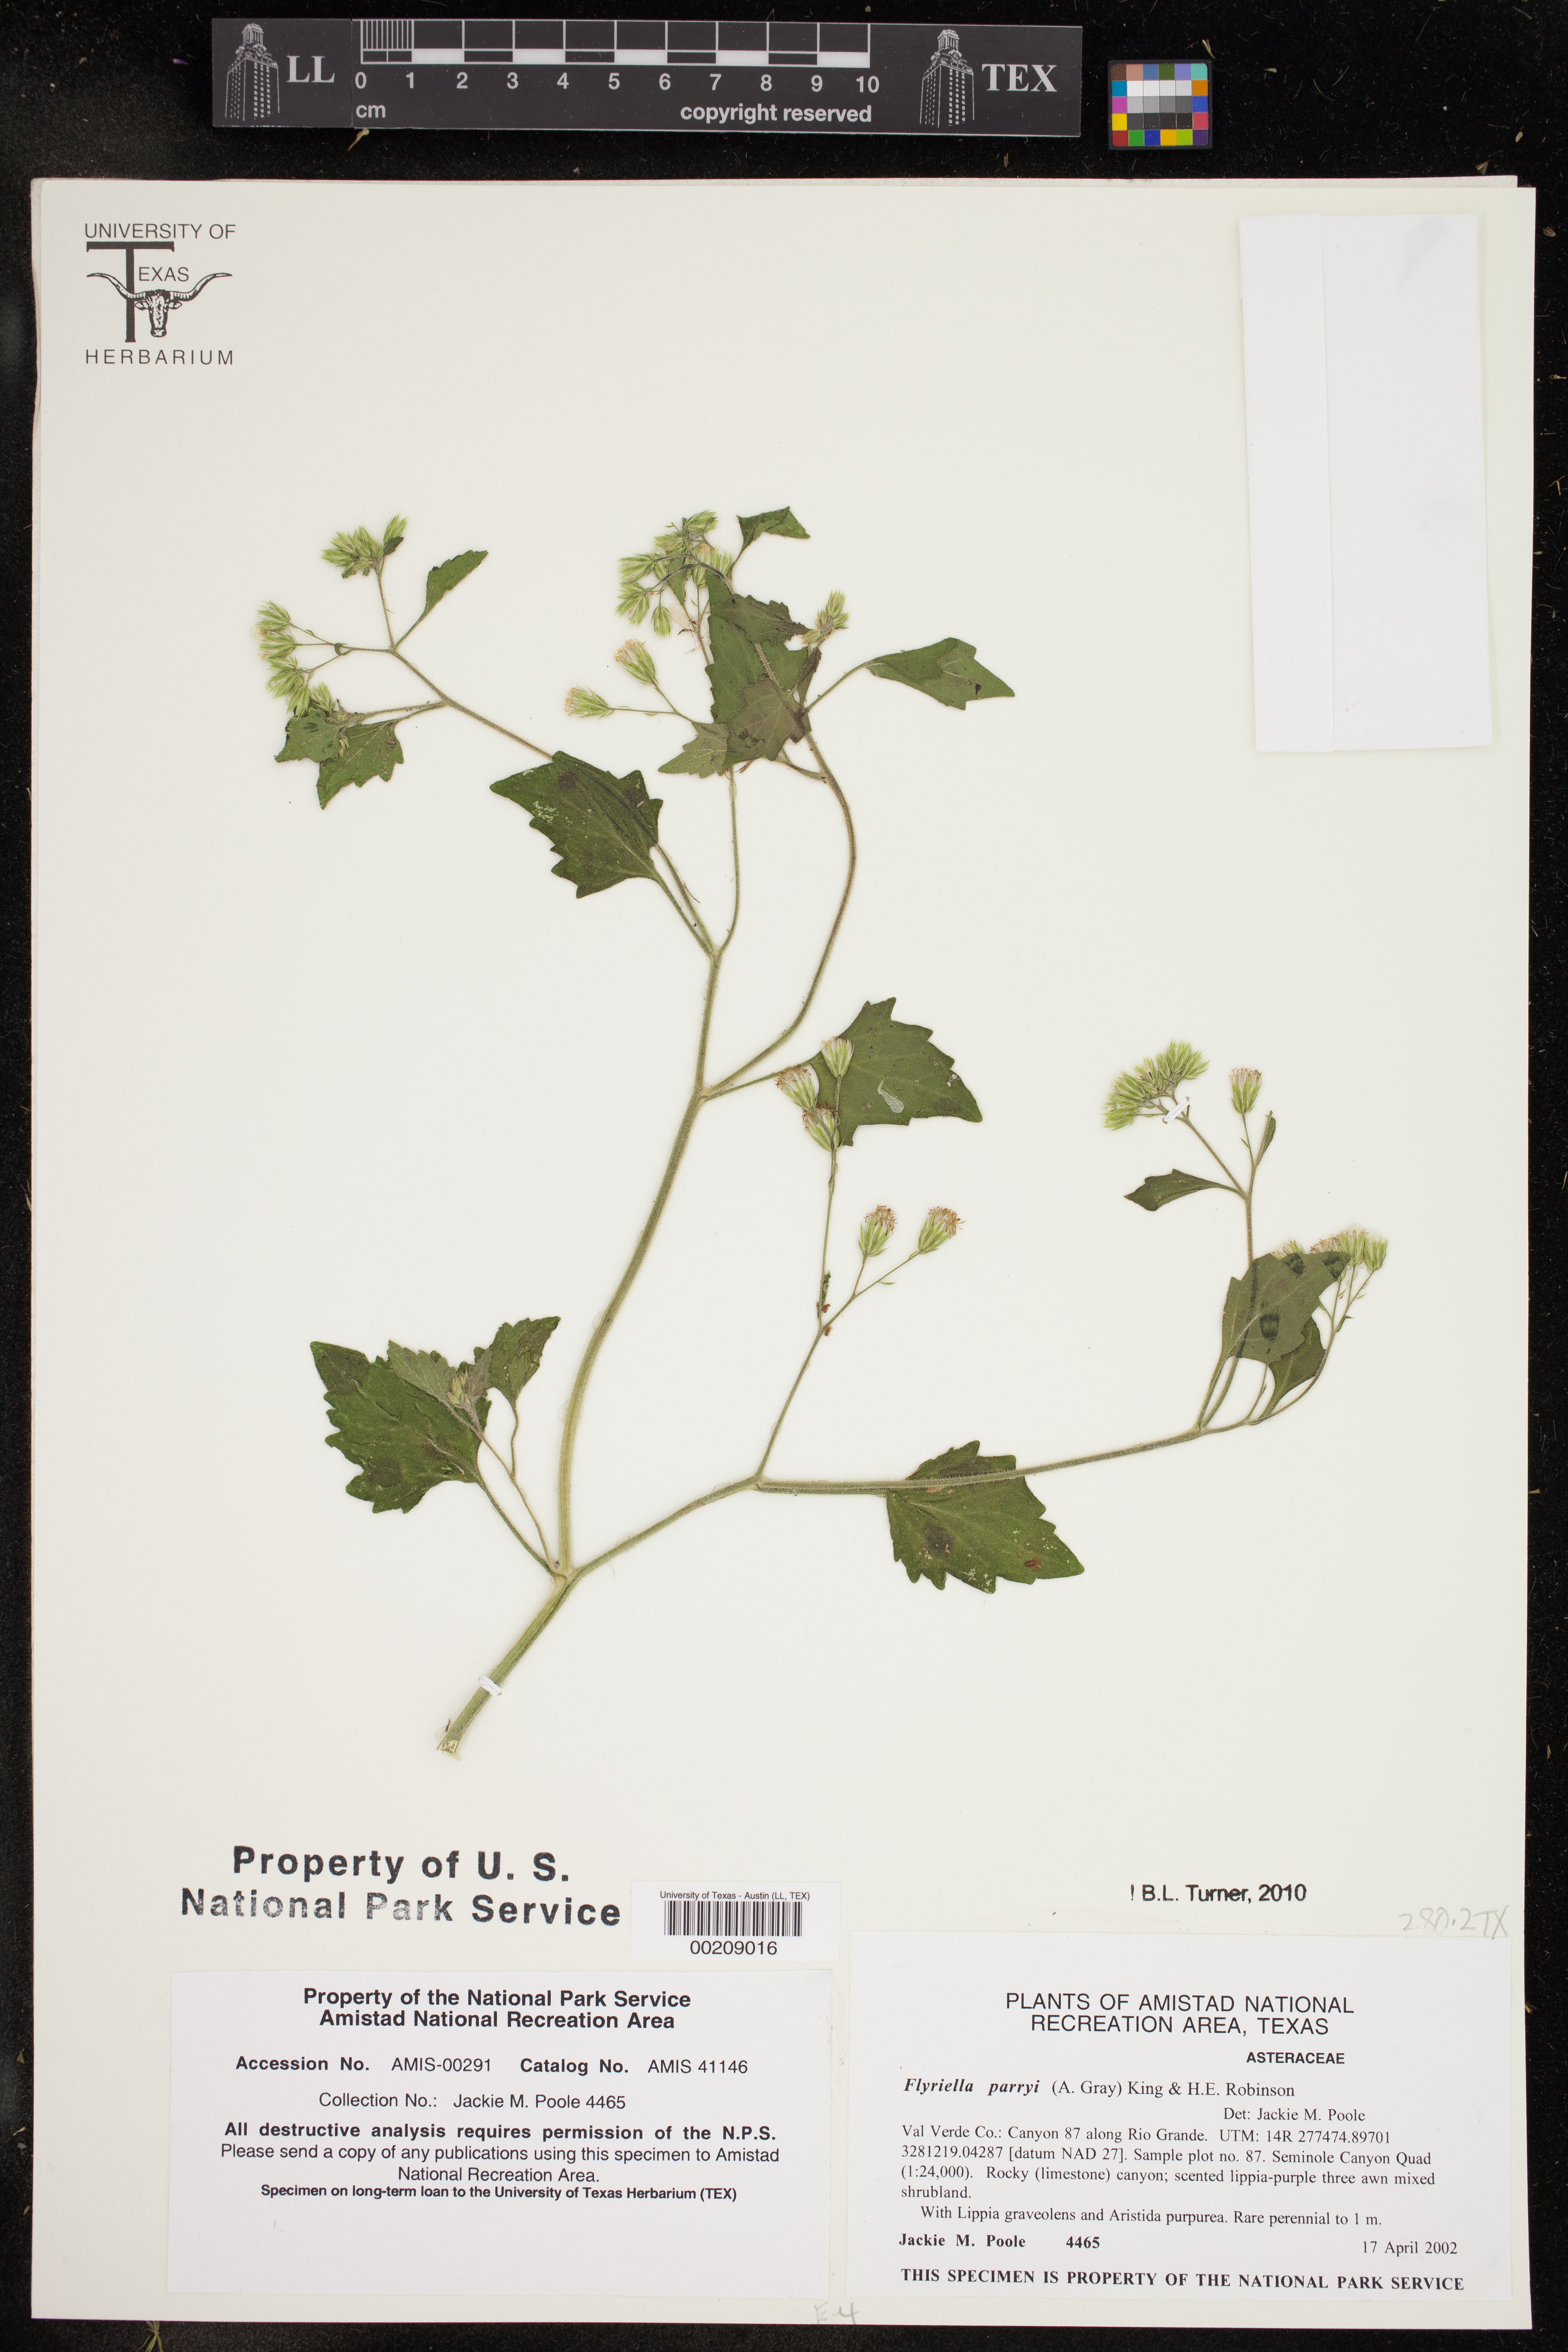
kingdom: Plantae
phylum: Tracheophyta
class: Magnoliopsida
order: Asterales
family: Asteraceae
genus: Flyriella
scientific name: Flyriella parryi
